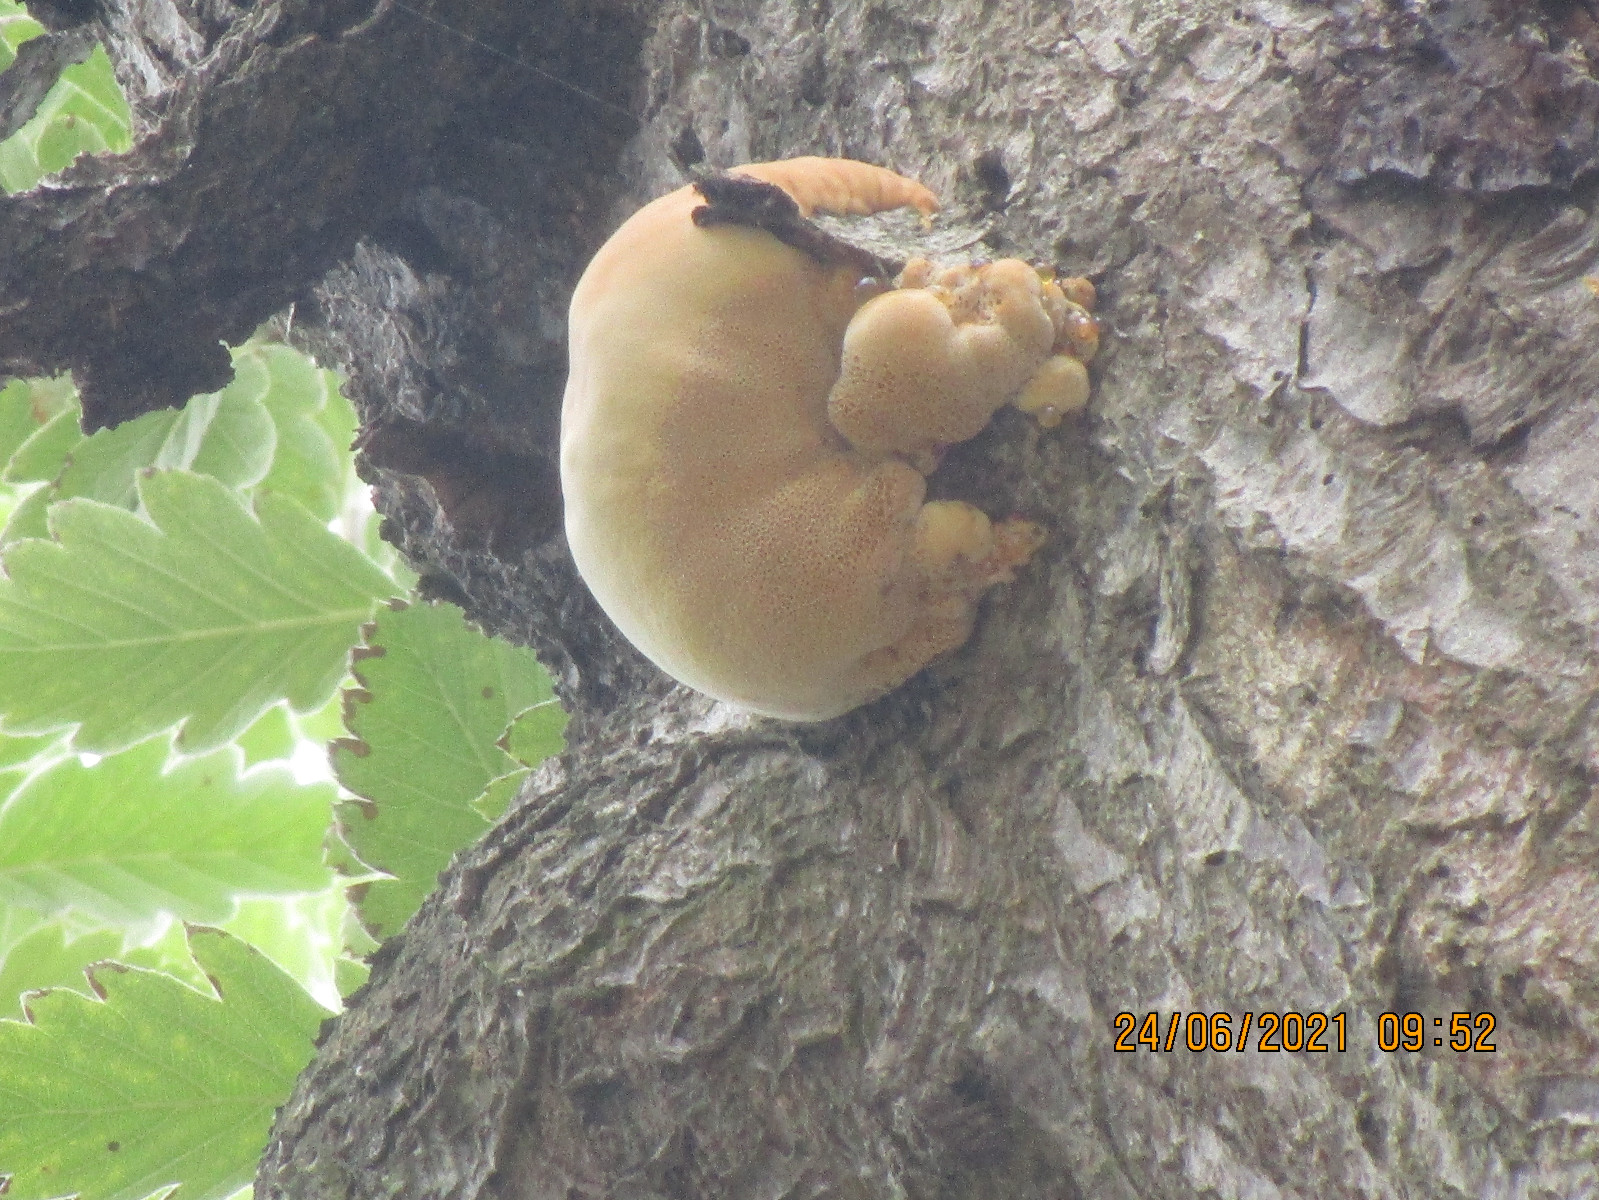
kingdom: Fungi
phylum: Basidiomycota
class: Agaricomycetes
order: Hymenochaetales
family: Hymenochaetaceae
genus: Inonotus
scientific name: Inonotus hispidus
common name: børstehåret spejlporesvamp
